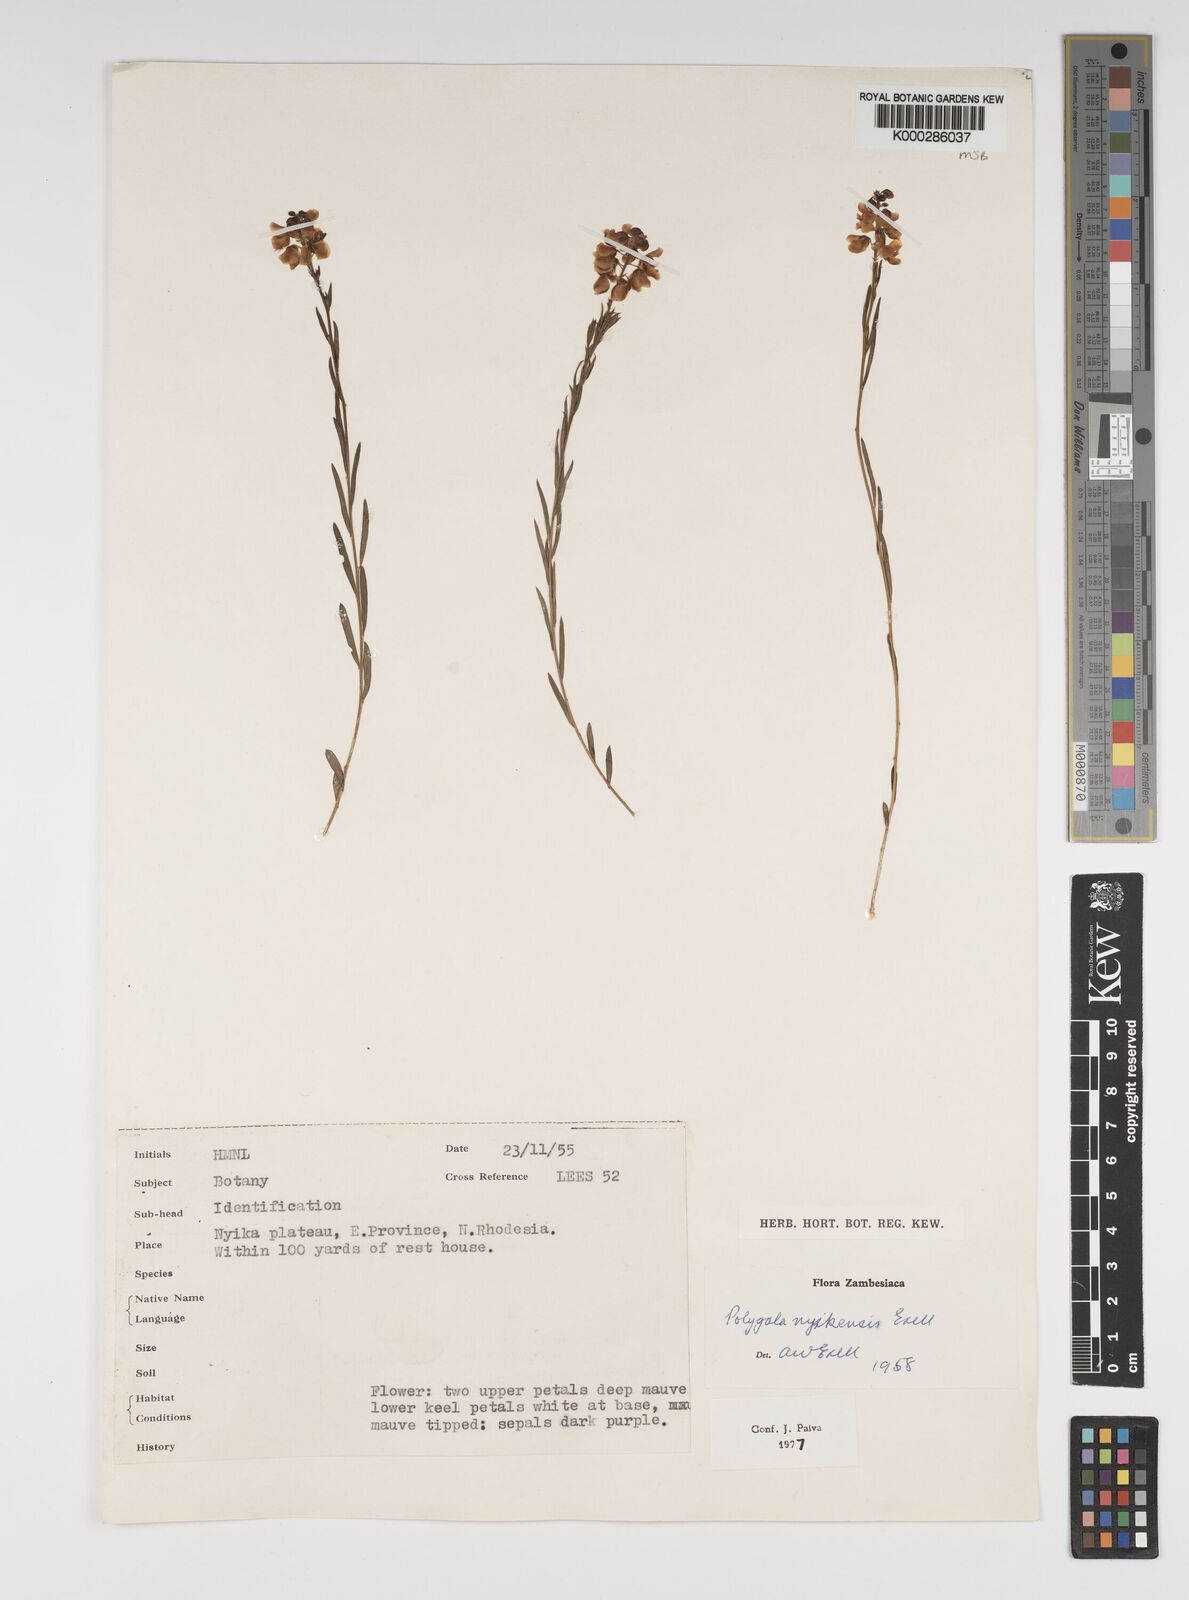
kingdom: Plantae
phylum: Tracheophyta
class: Magnoliopsida
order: Fabales
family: Polygalaceae
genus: Polygala
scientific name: Polygala nyikensis
